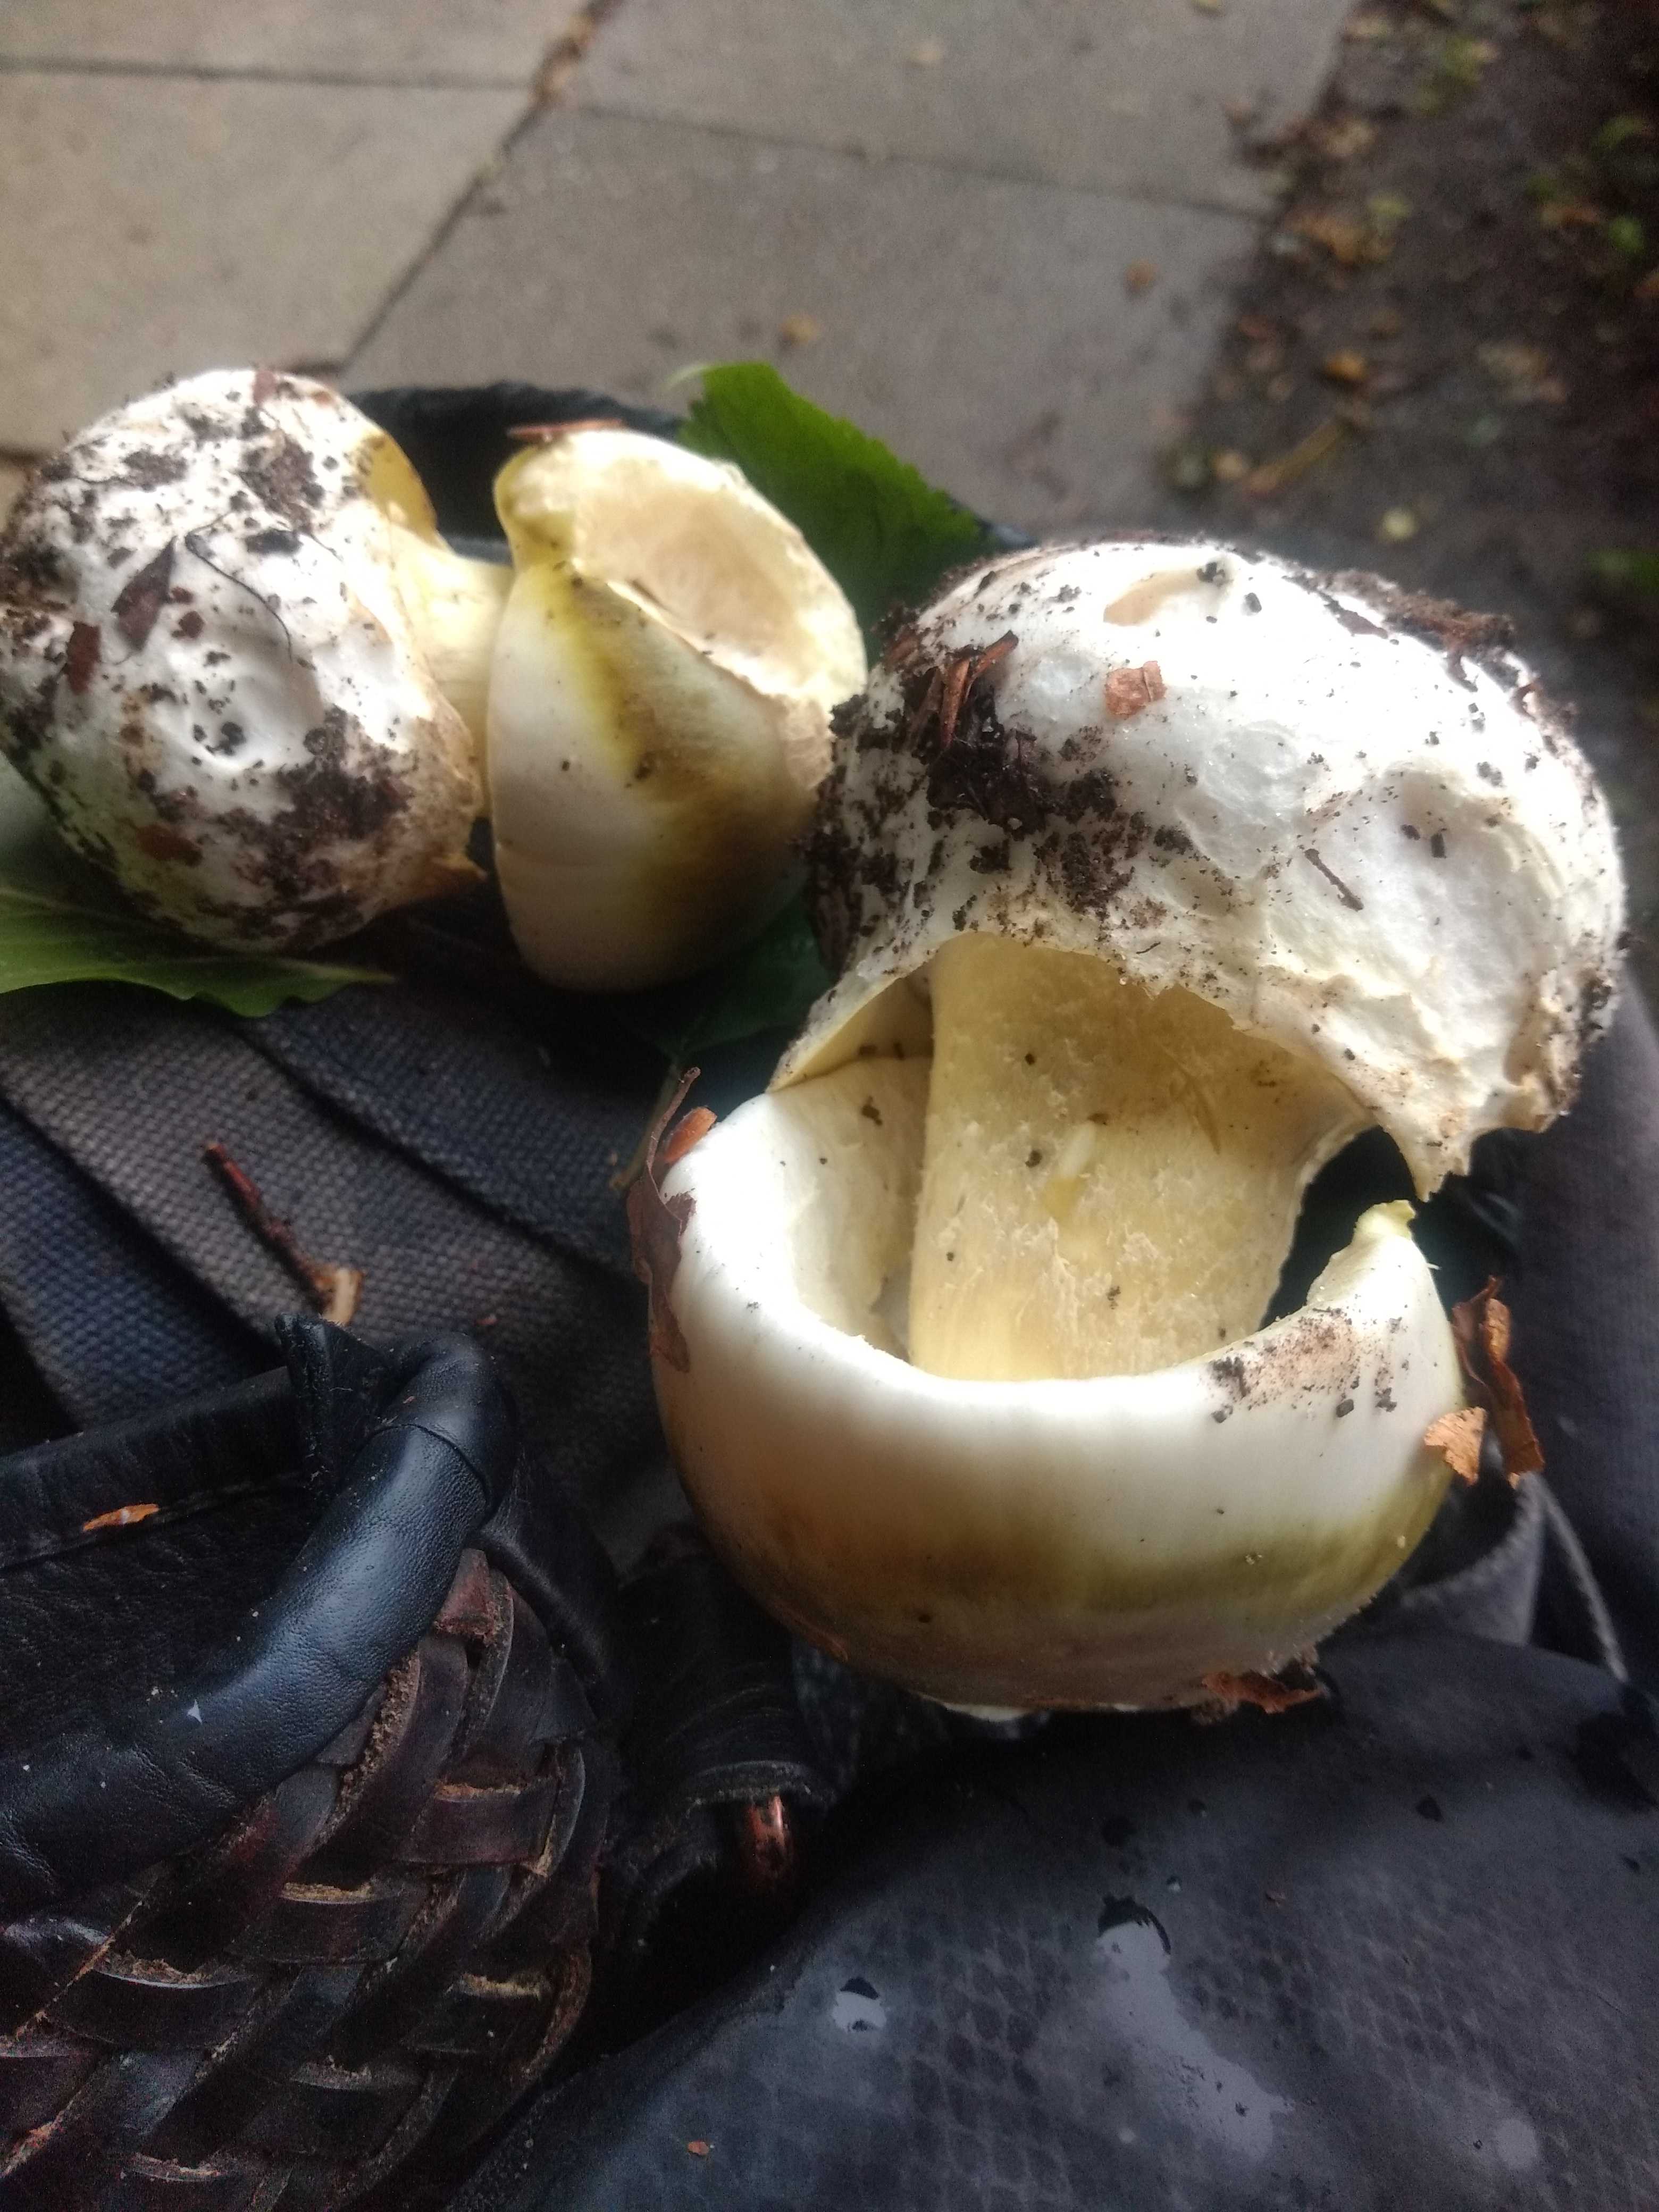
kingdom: Fungi
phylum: Basidiomycota
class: Agaricomycetes
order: Agaricales
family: Amanitaceae
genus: Amanita
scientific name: Amanita phalloides
